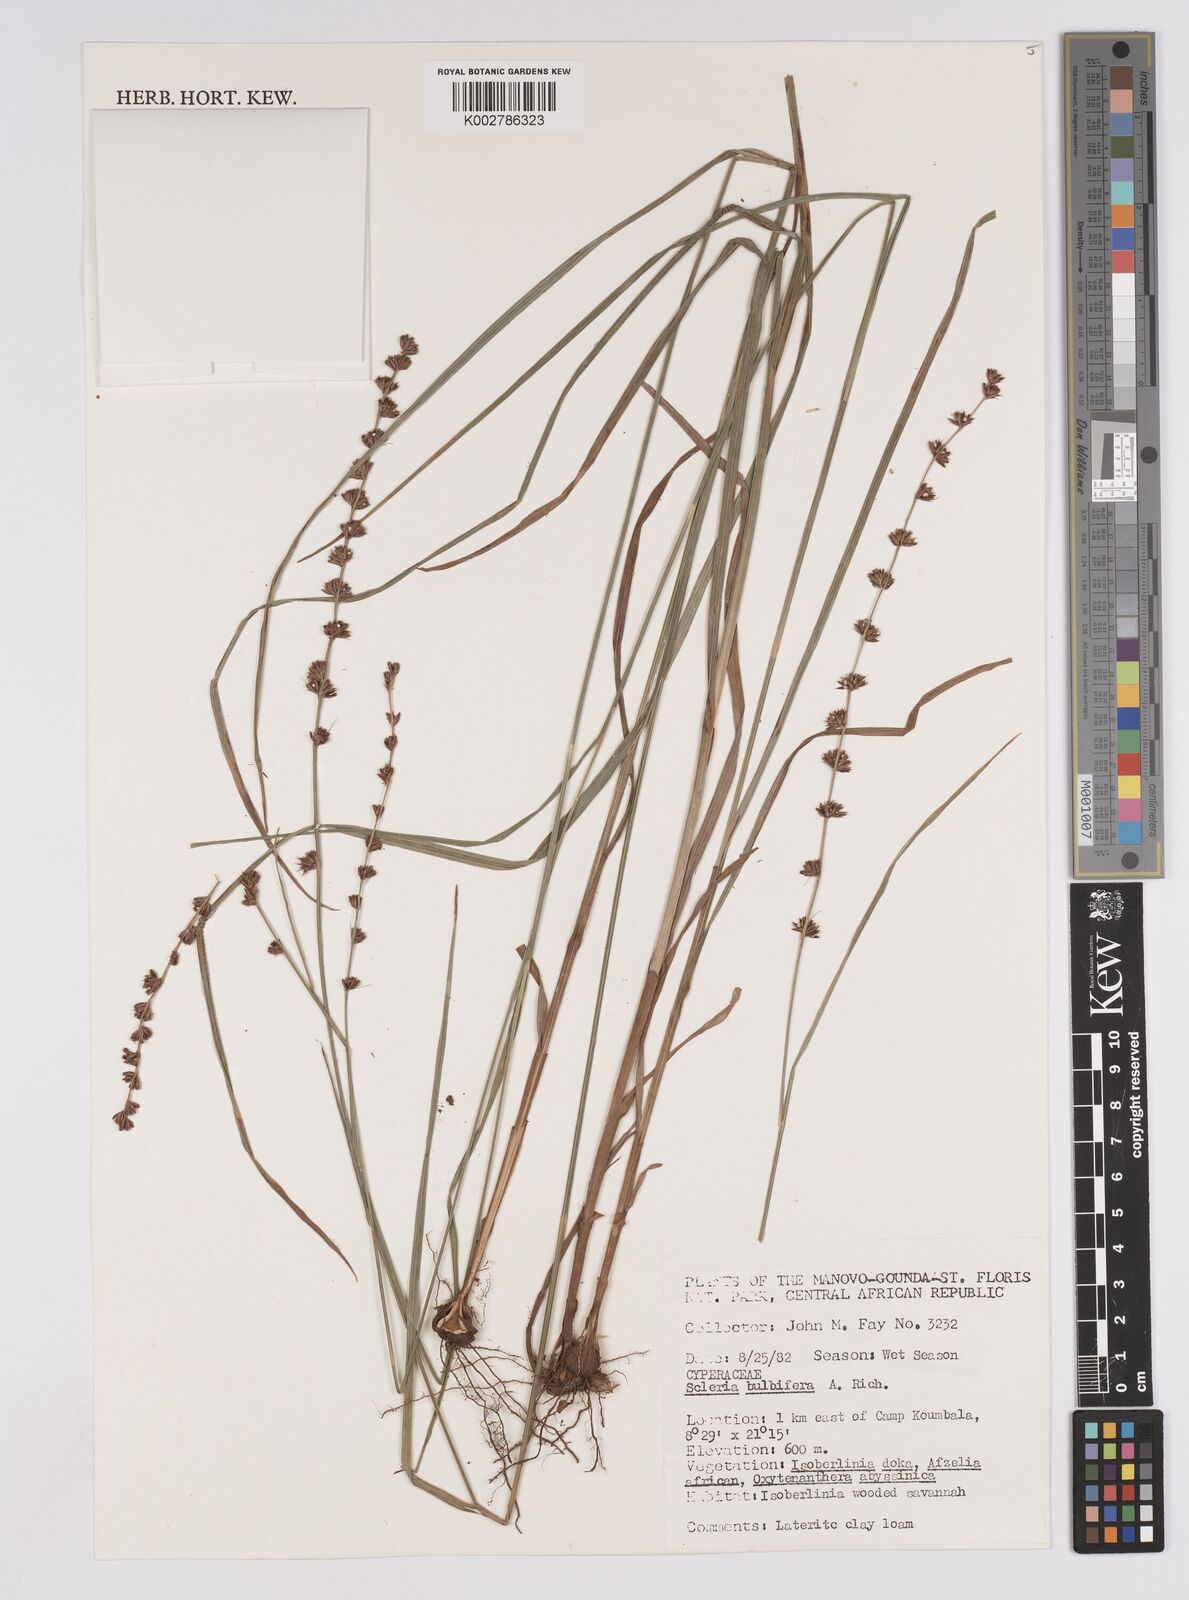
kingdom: Plantae
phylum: Tracheophyta
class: Liliopsida
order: Poales
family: Cyperaceae
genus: Scleria
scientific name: Scleria bulbifera
